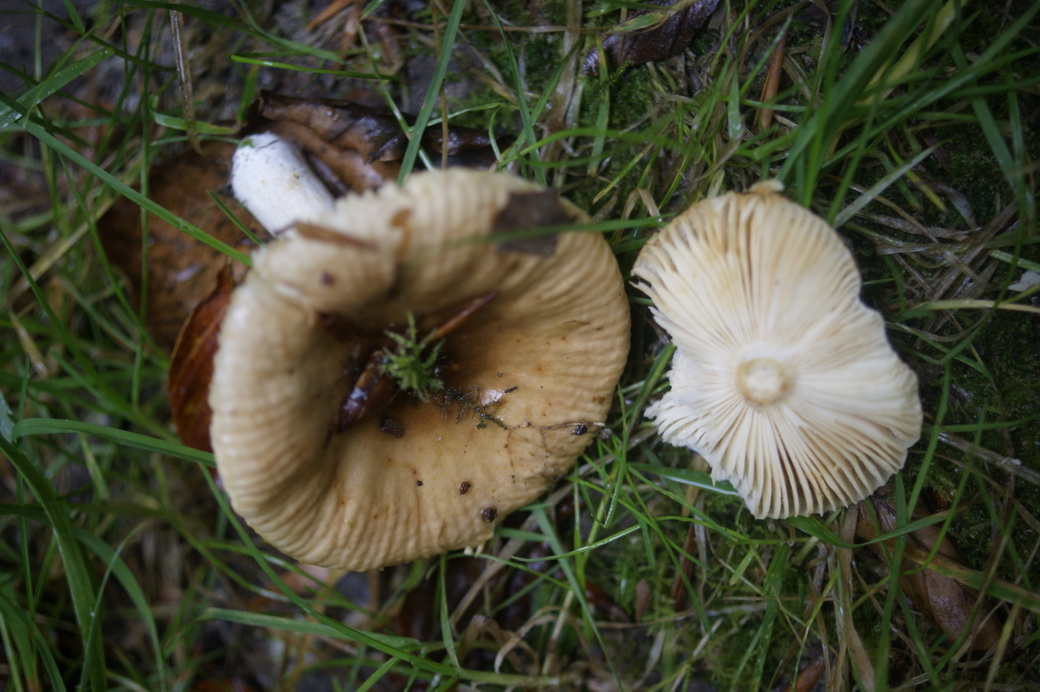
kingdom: Fungi
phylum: Basidiomycota
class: Agaricomycetes
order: Russulales
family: Russulaceae
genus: Russula
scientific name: Russula recondita
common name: mild kam-skørhat
